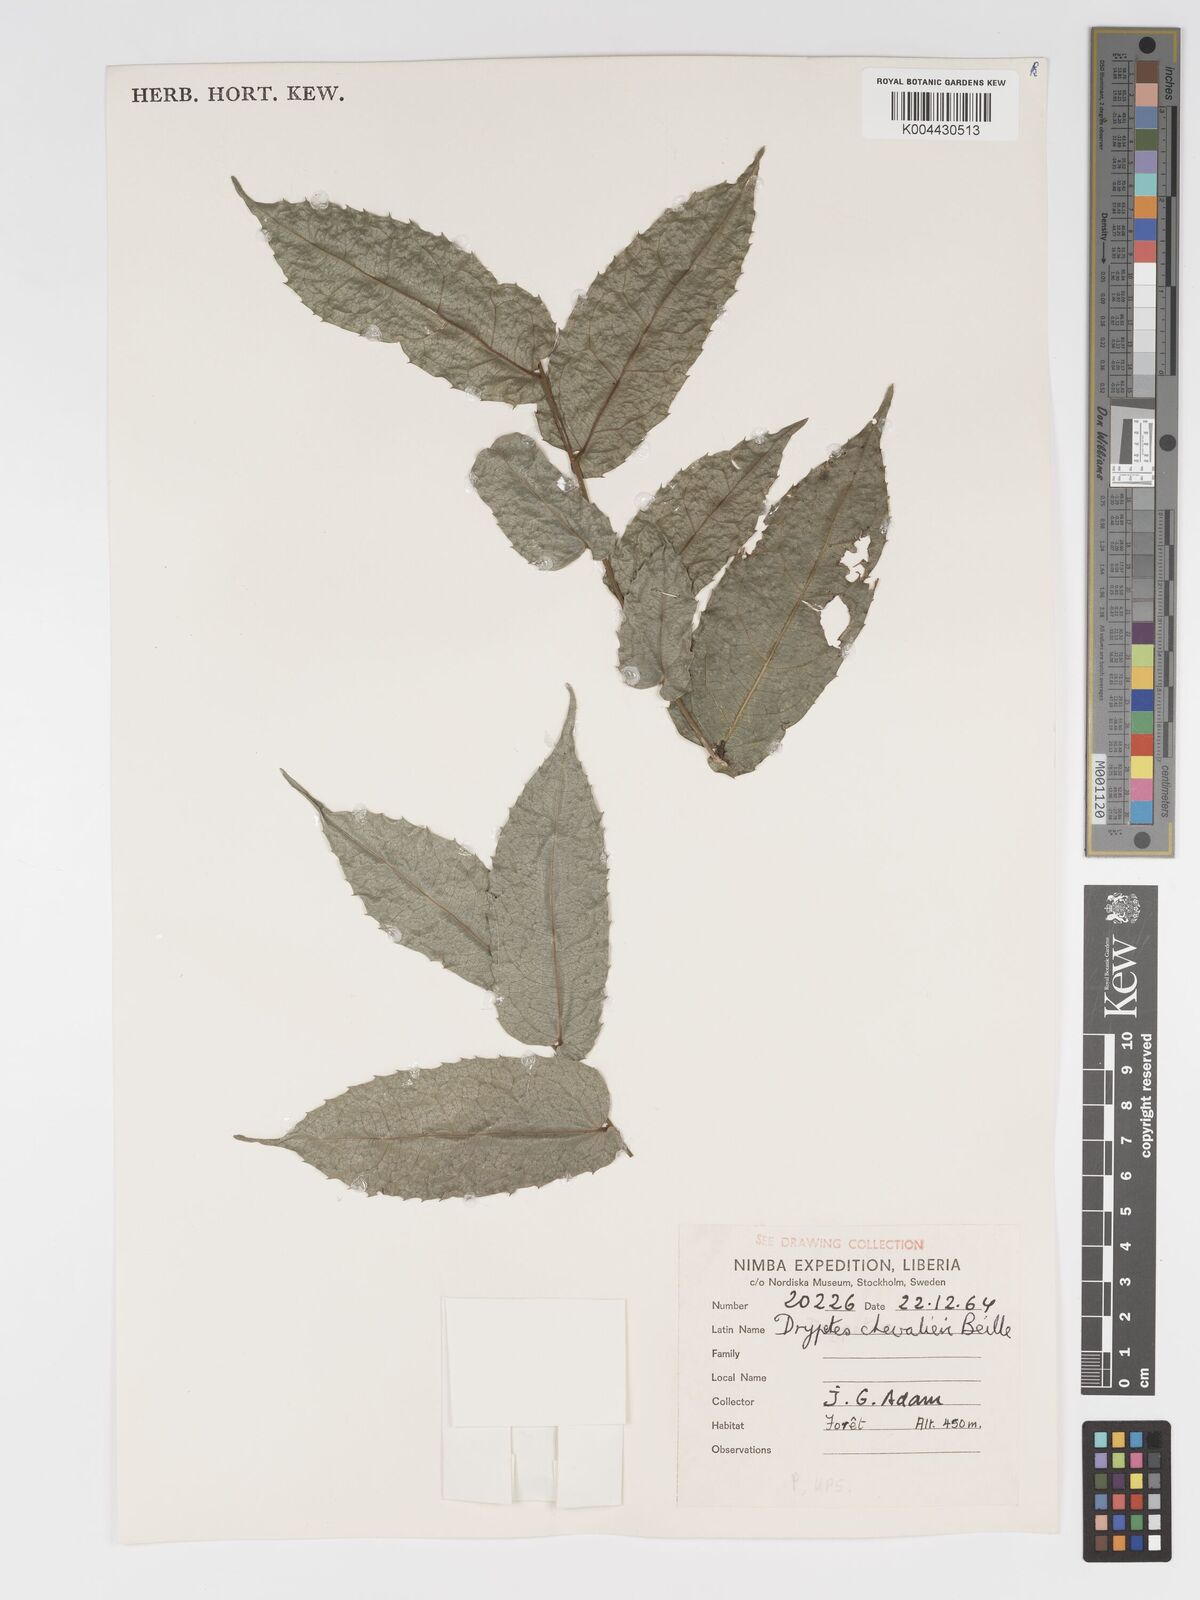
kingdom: Plantae
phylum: Tracheophyta
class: Magnoliopsida
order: Malpighiales
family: Putranjivaceae
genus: Drypetes
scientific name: Drypetes chevalieri
